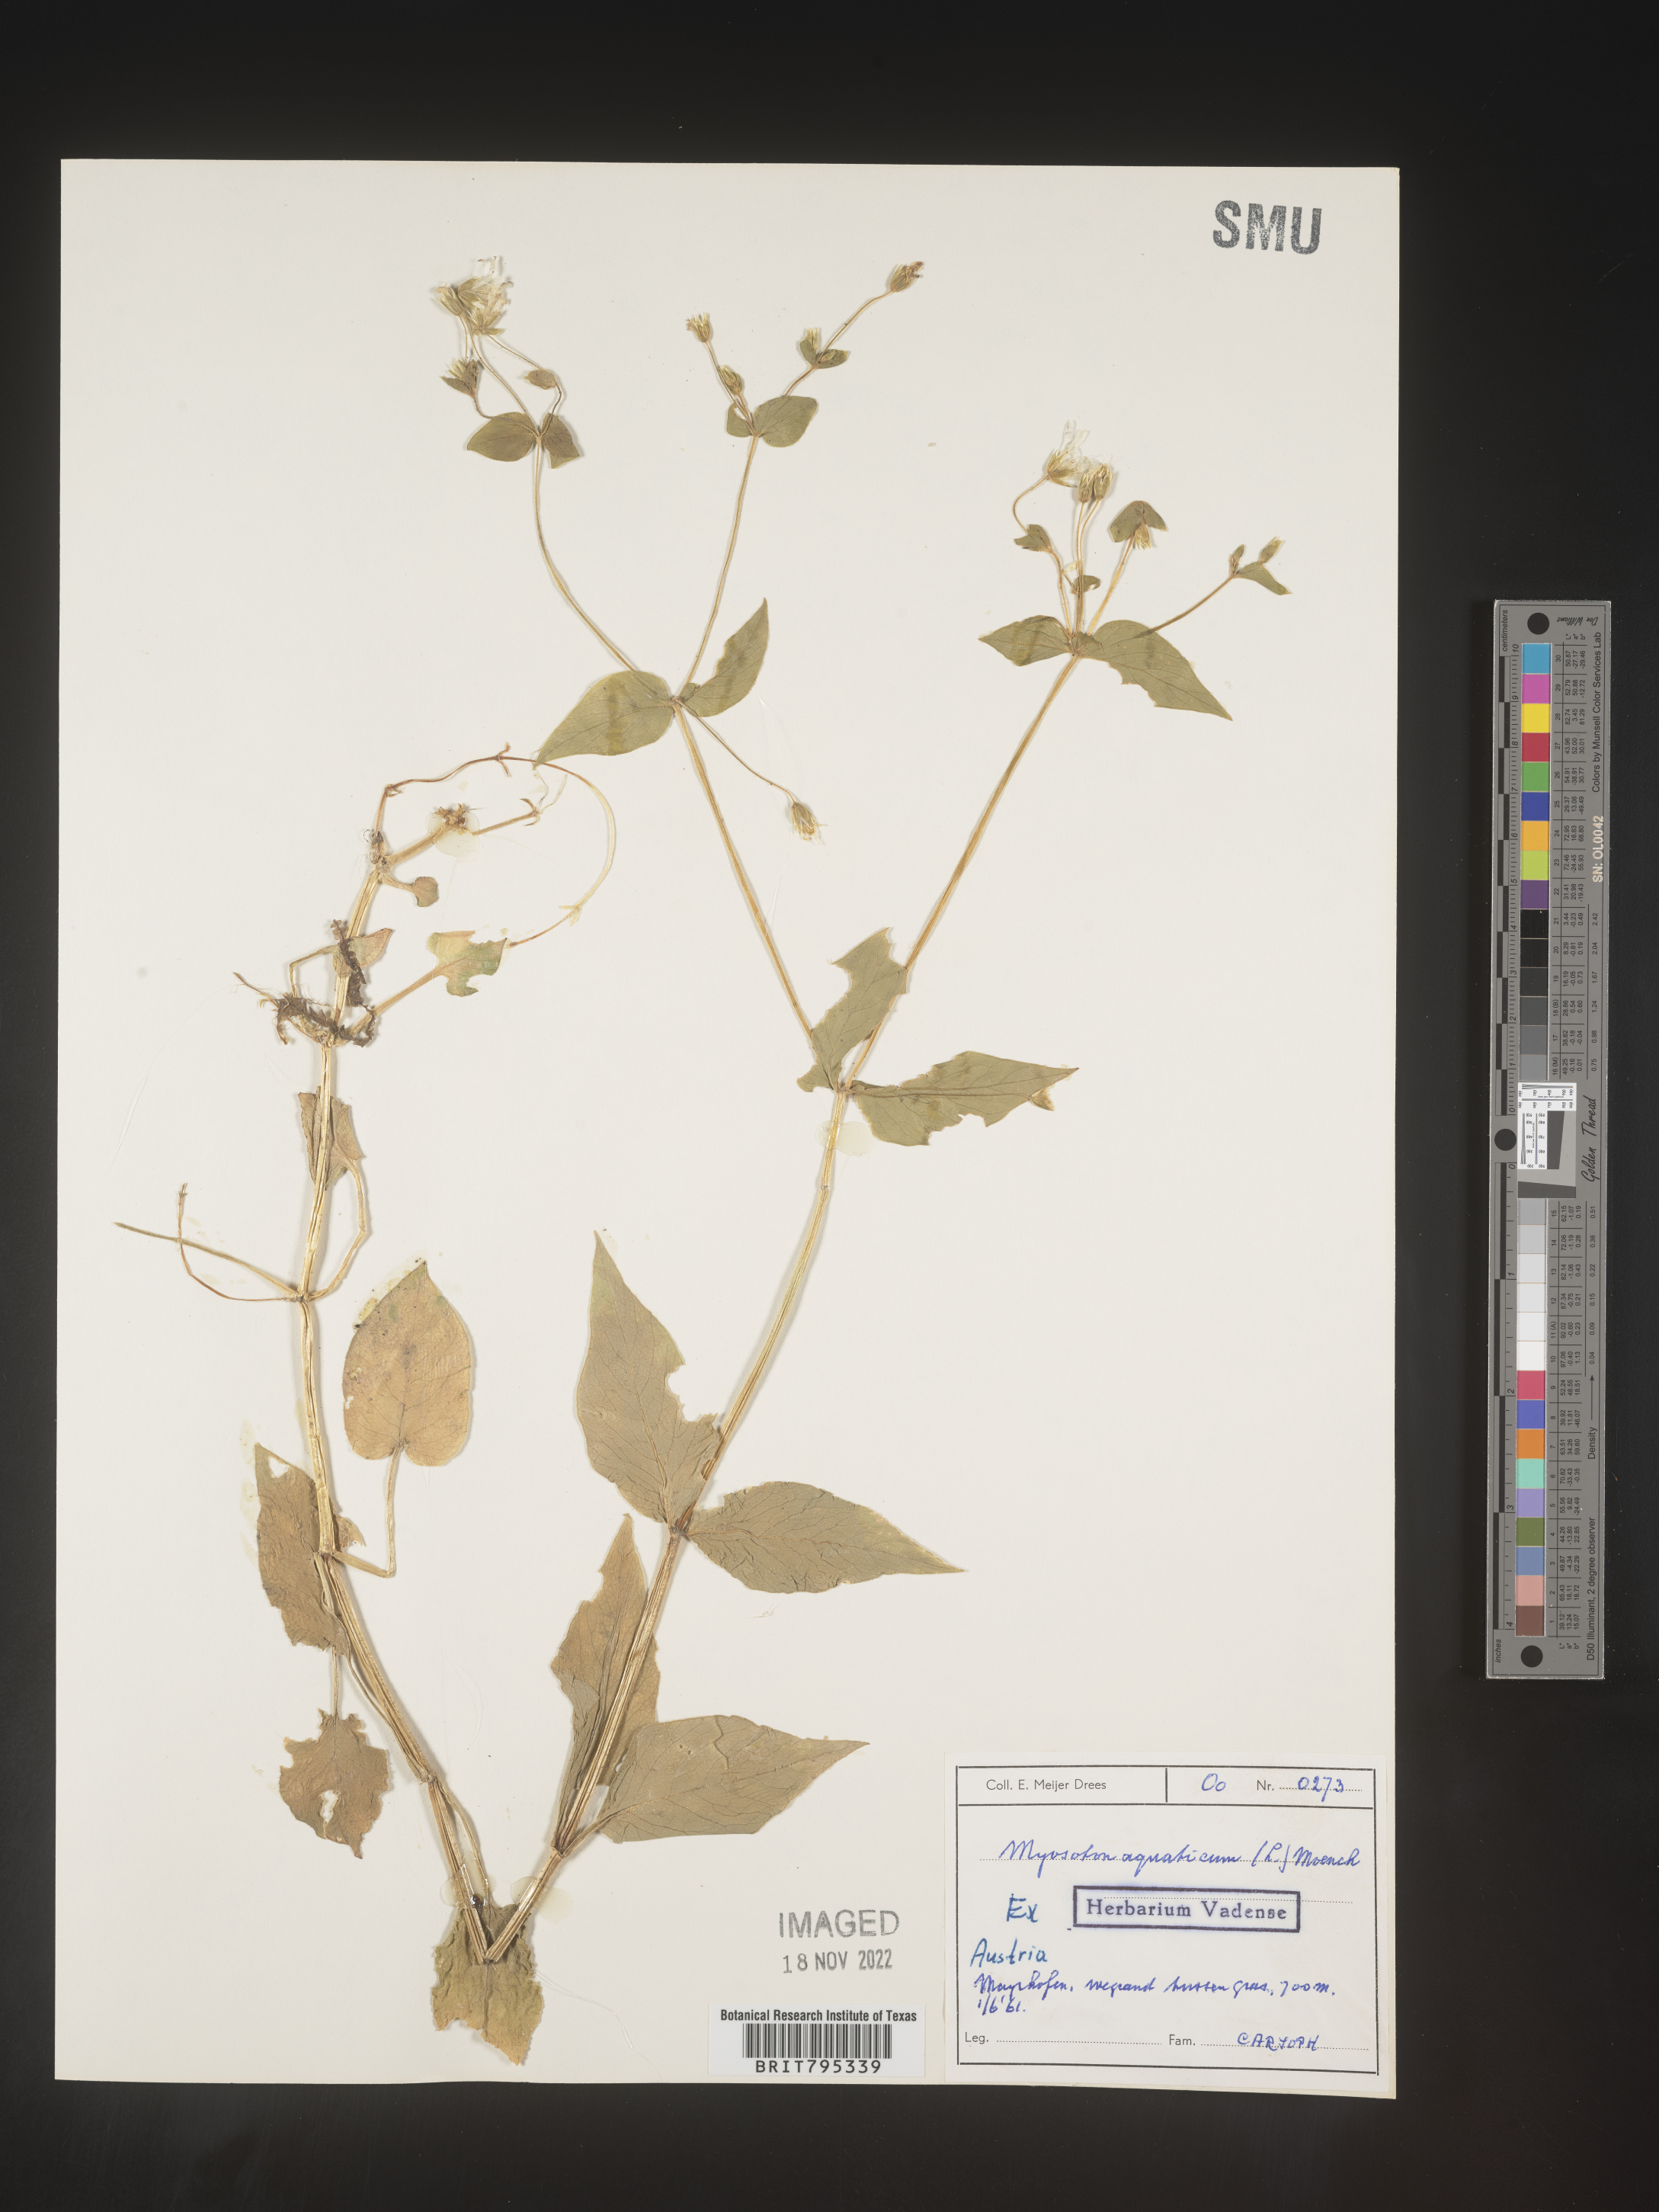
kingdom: Plantae
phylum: Tracheophyta
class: Magnoliopsida
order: Caryophyllales
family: Caryophyllaceae
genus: Stellaria
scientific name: Stellaria
